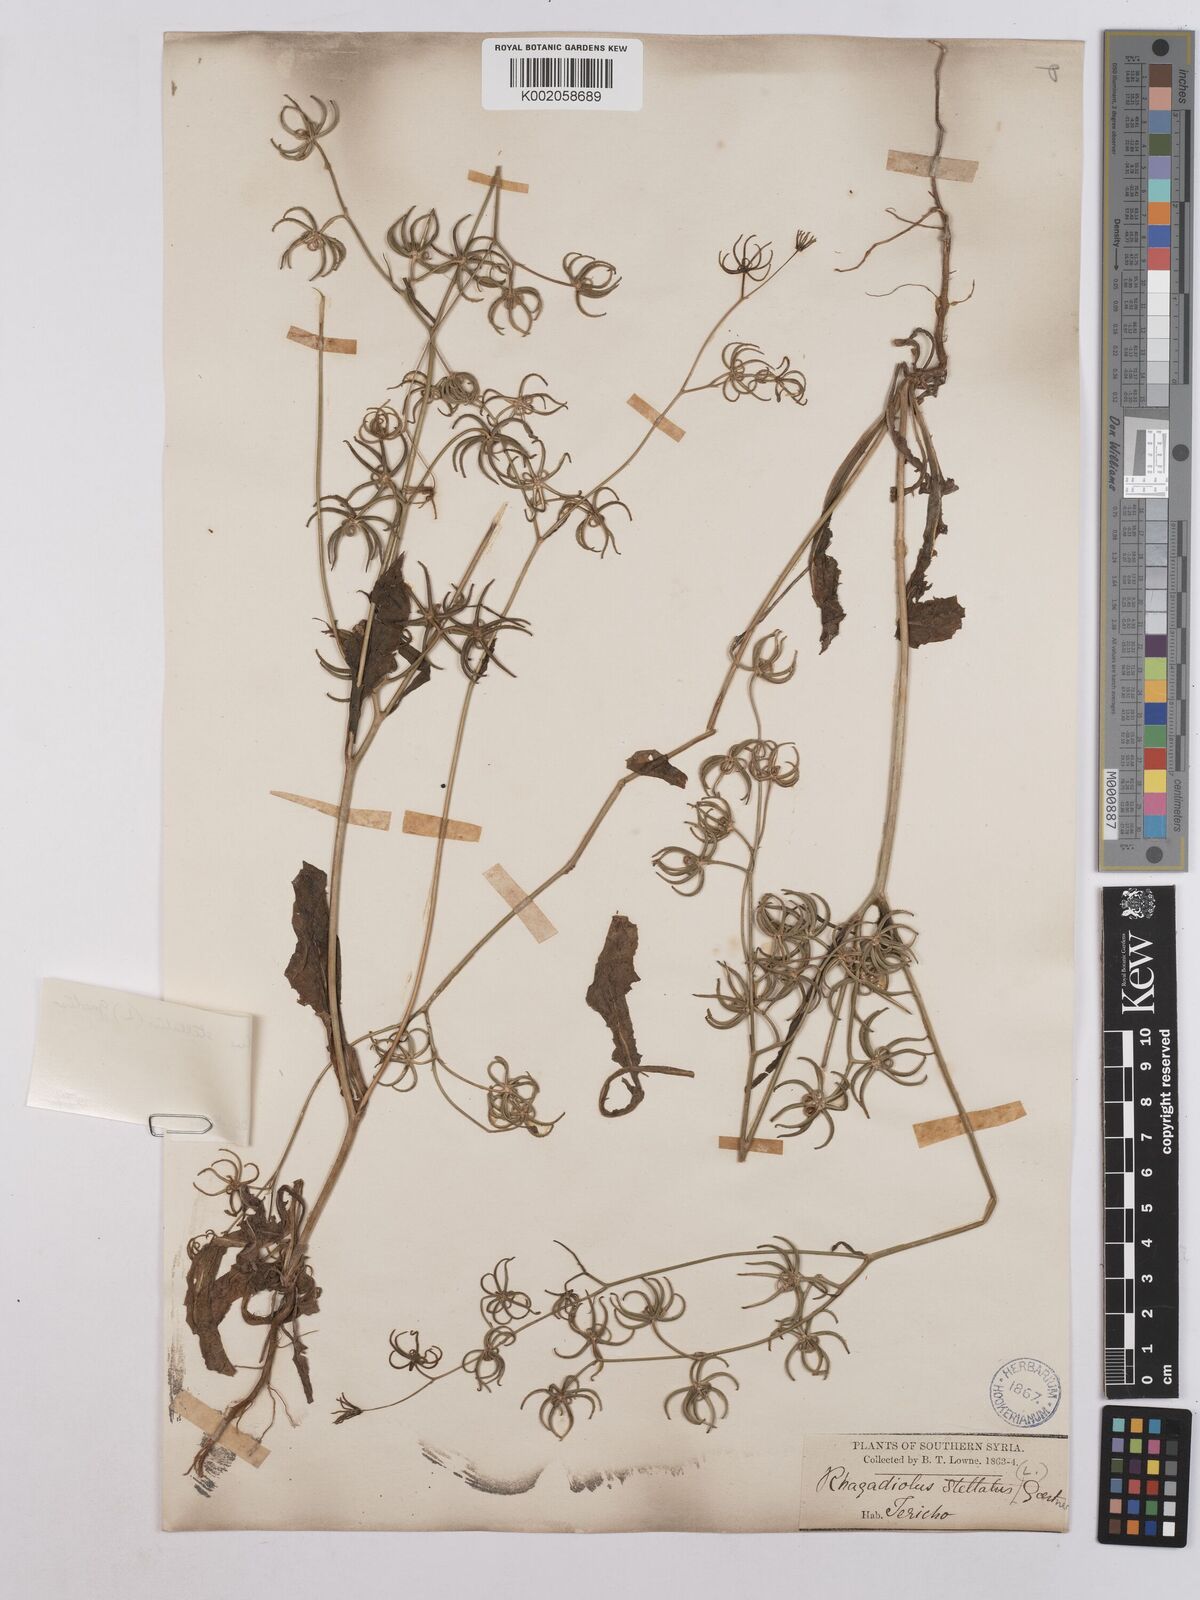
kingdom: Plantae
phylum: Tracheophyta
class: Magnoliopsida
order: Asterales
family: Asteraceae
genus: Rhagadiolus
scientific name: Rhagadiolus stellatus
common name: Star hawkbit
